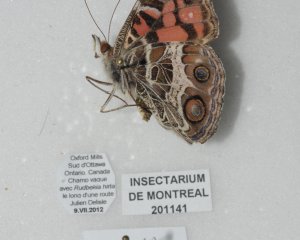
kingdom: Animalia
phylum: Arthropoda
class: Insecta
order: Lepidoptera
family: Nymphalidae
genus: Vanessa
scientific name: Vanessa virginiensis
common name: American Lady
